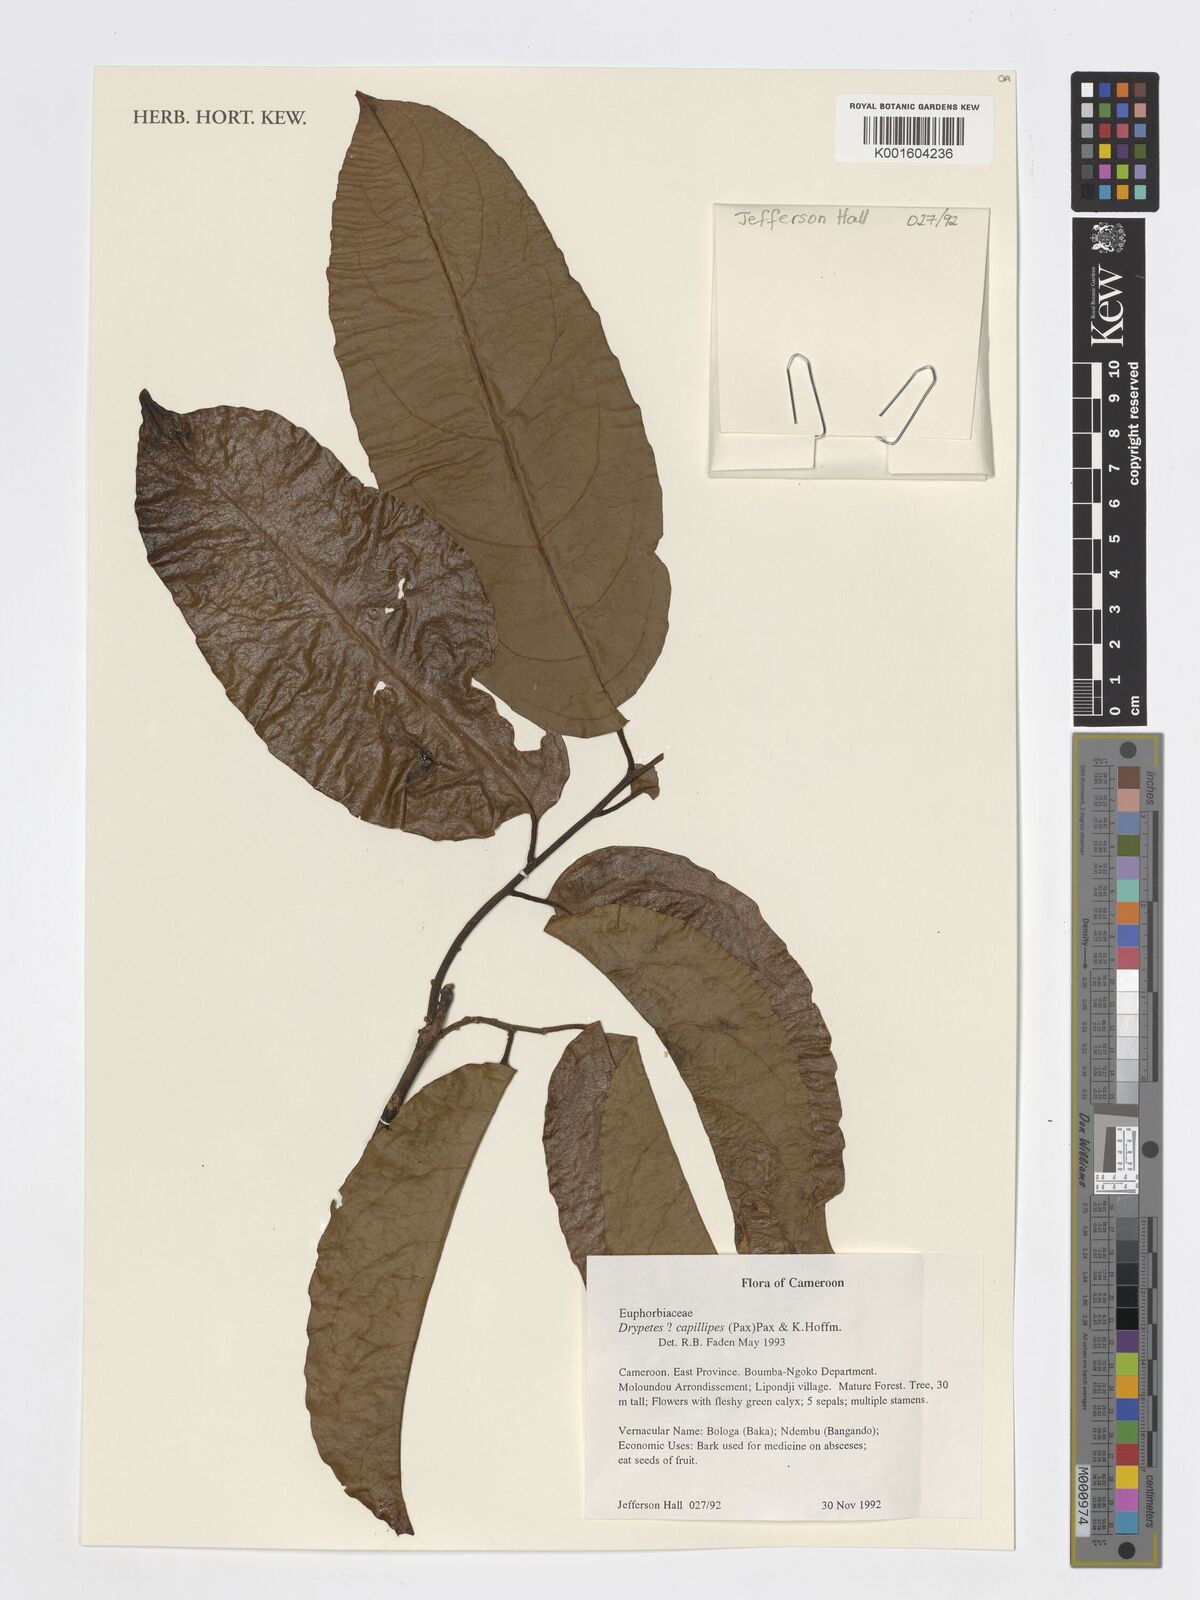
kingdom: Plantae
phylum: Tracheophyta
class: Magnoliopsida
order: Malpighiales
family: Putranjivaceae
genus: Drypetes
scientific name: Drypetes capillipes
